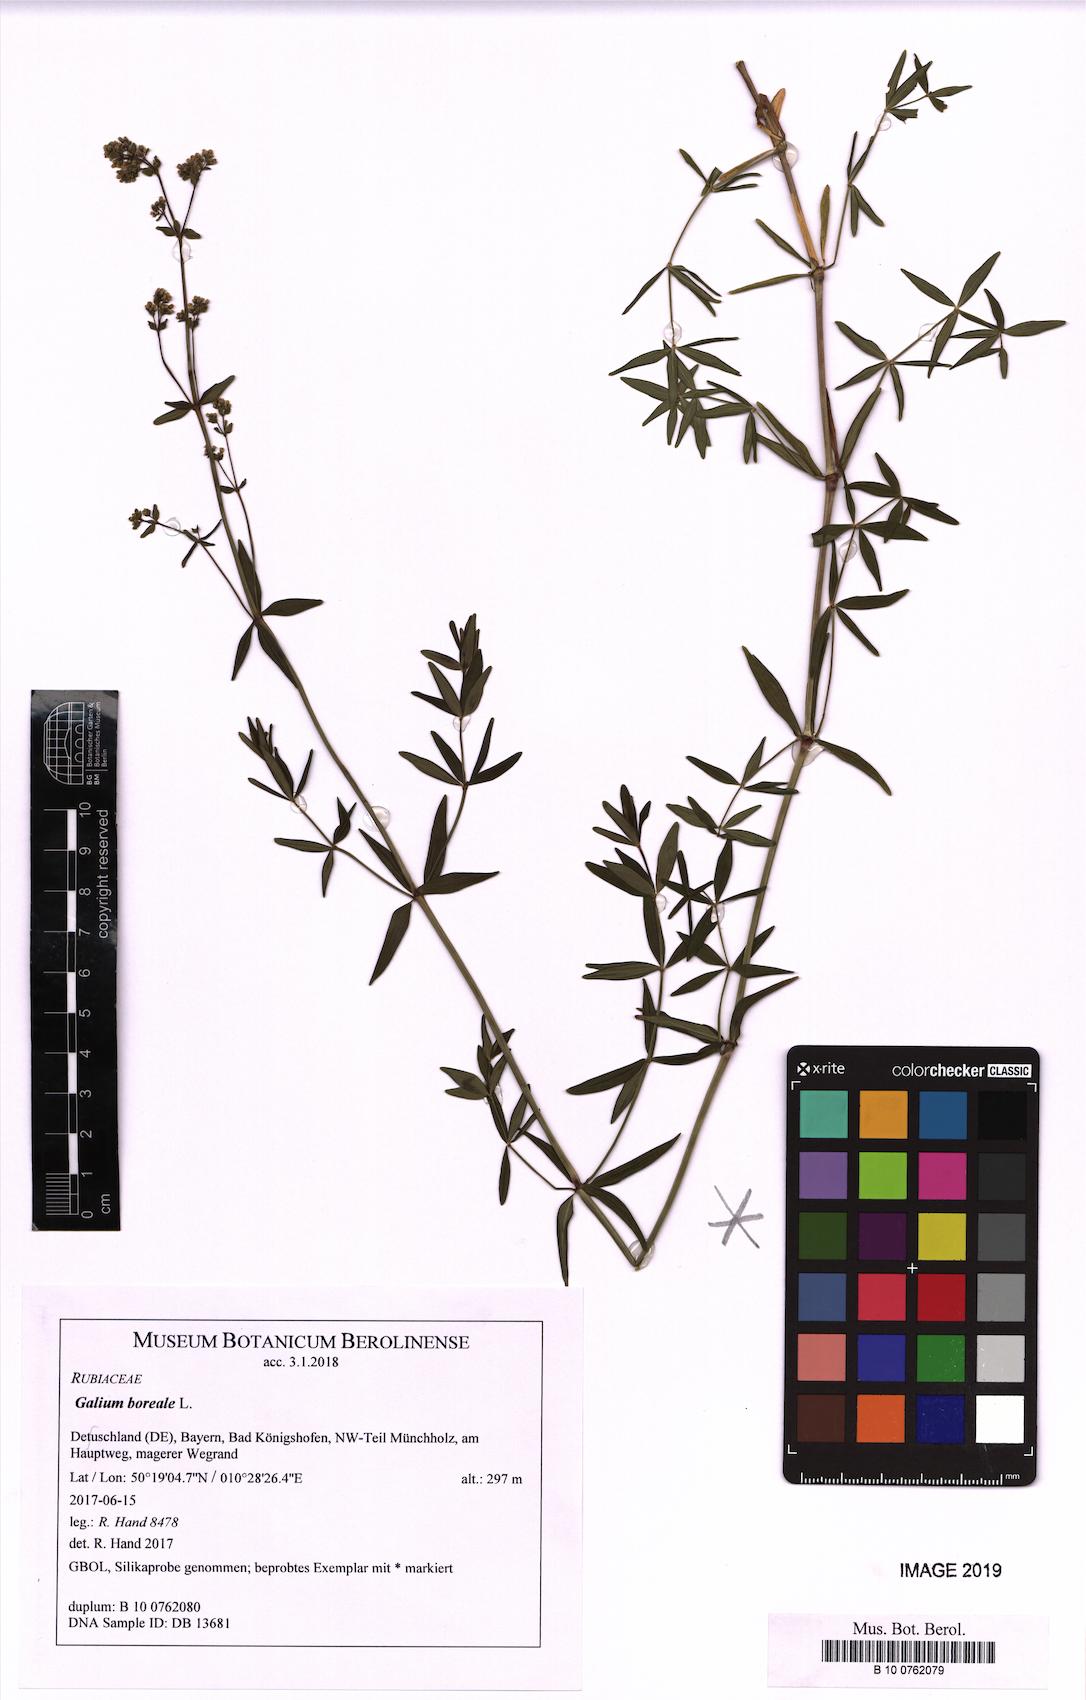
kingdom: Plantae
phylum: Tracheophyta
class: Magnoliopsida
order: Gentianales
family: Rubiaceae
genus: Galium
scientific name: Galium boreale
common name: Northern bedstraw
